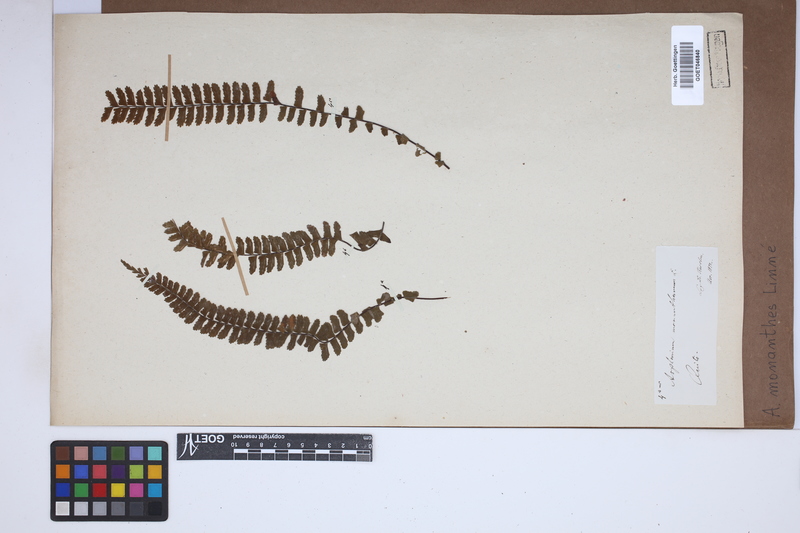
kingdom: Plantae
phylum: Tracheophyta
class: Polypodiopsida
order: Polypodiales
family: Aspleniaceae
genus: Asplenium
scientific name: Asplenium monanthes
